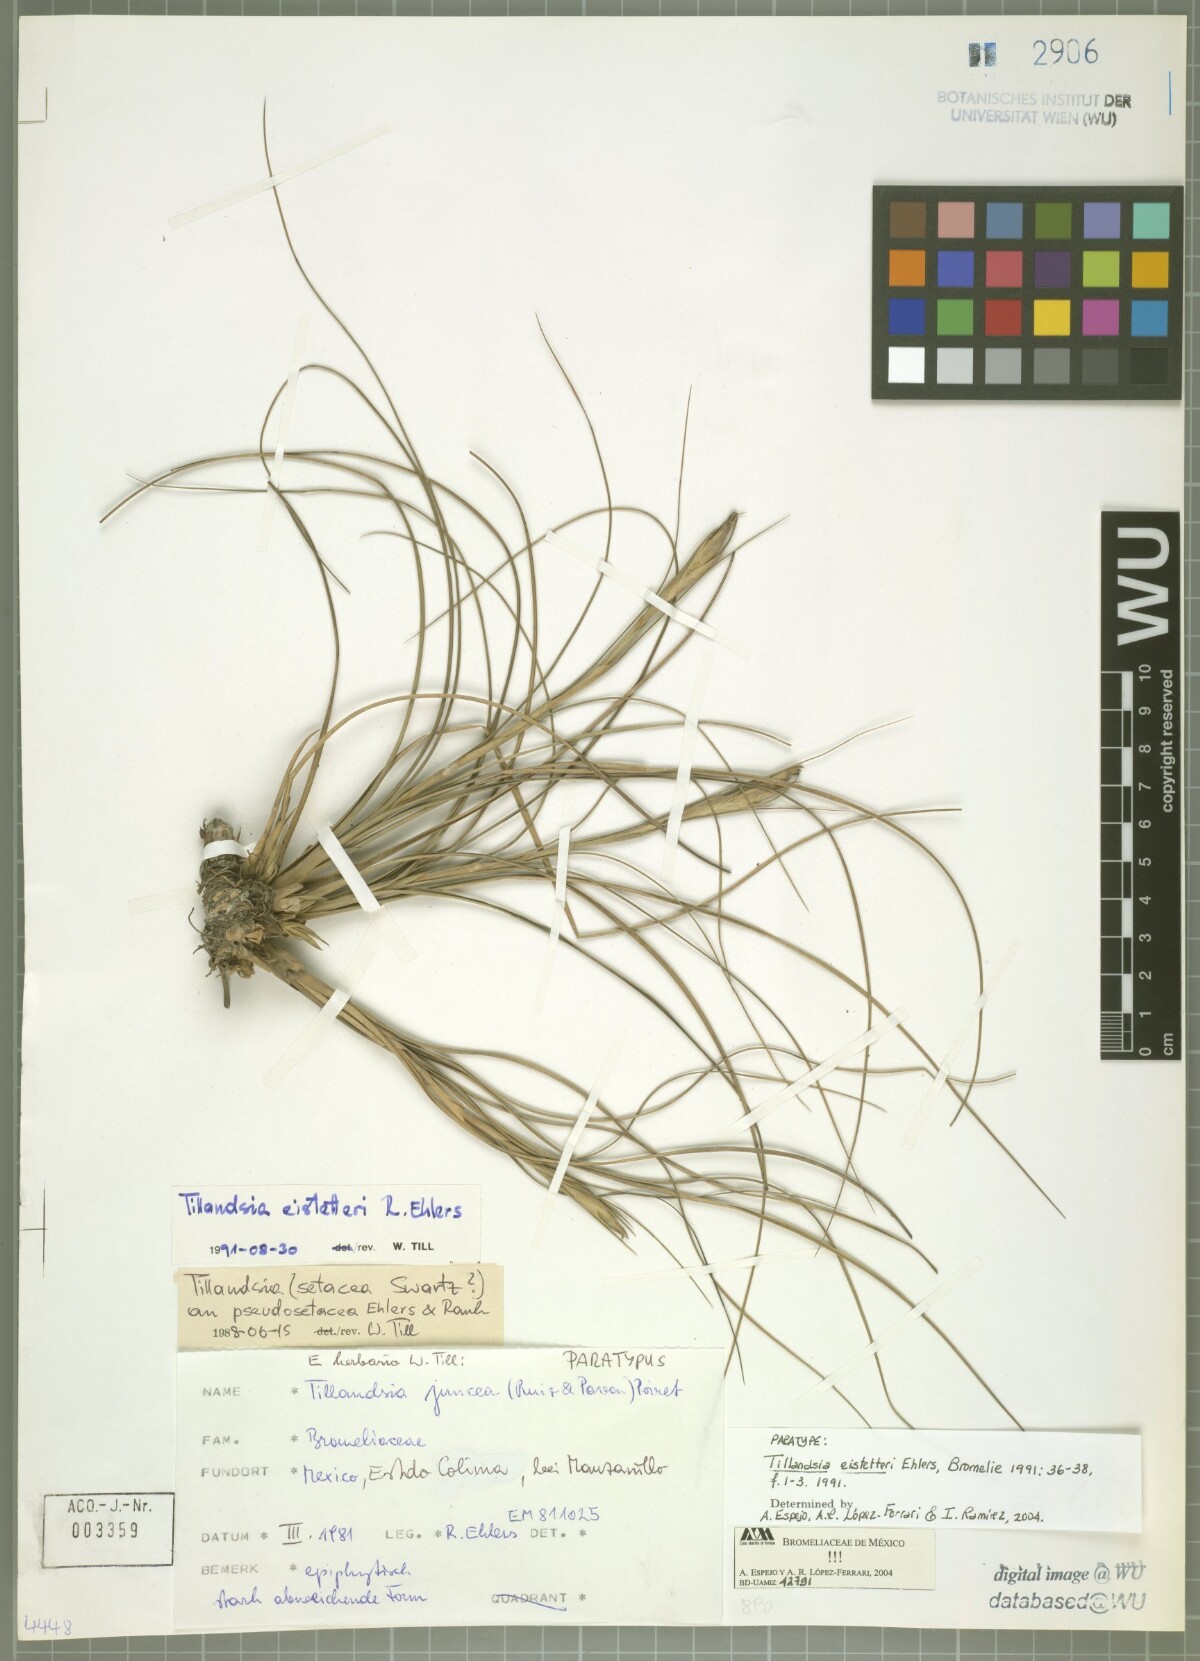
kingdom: Plantae
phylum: Tracheophyta
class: Liliopsida
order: Poales
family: Bromeliaceae
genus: Tillandsia
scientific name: Tillandsia eistetteri
